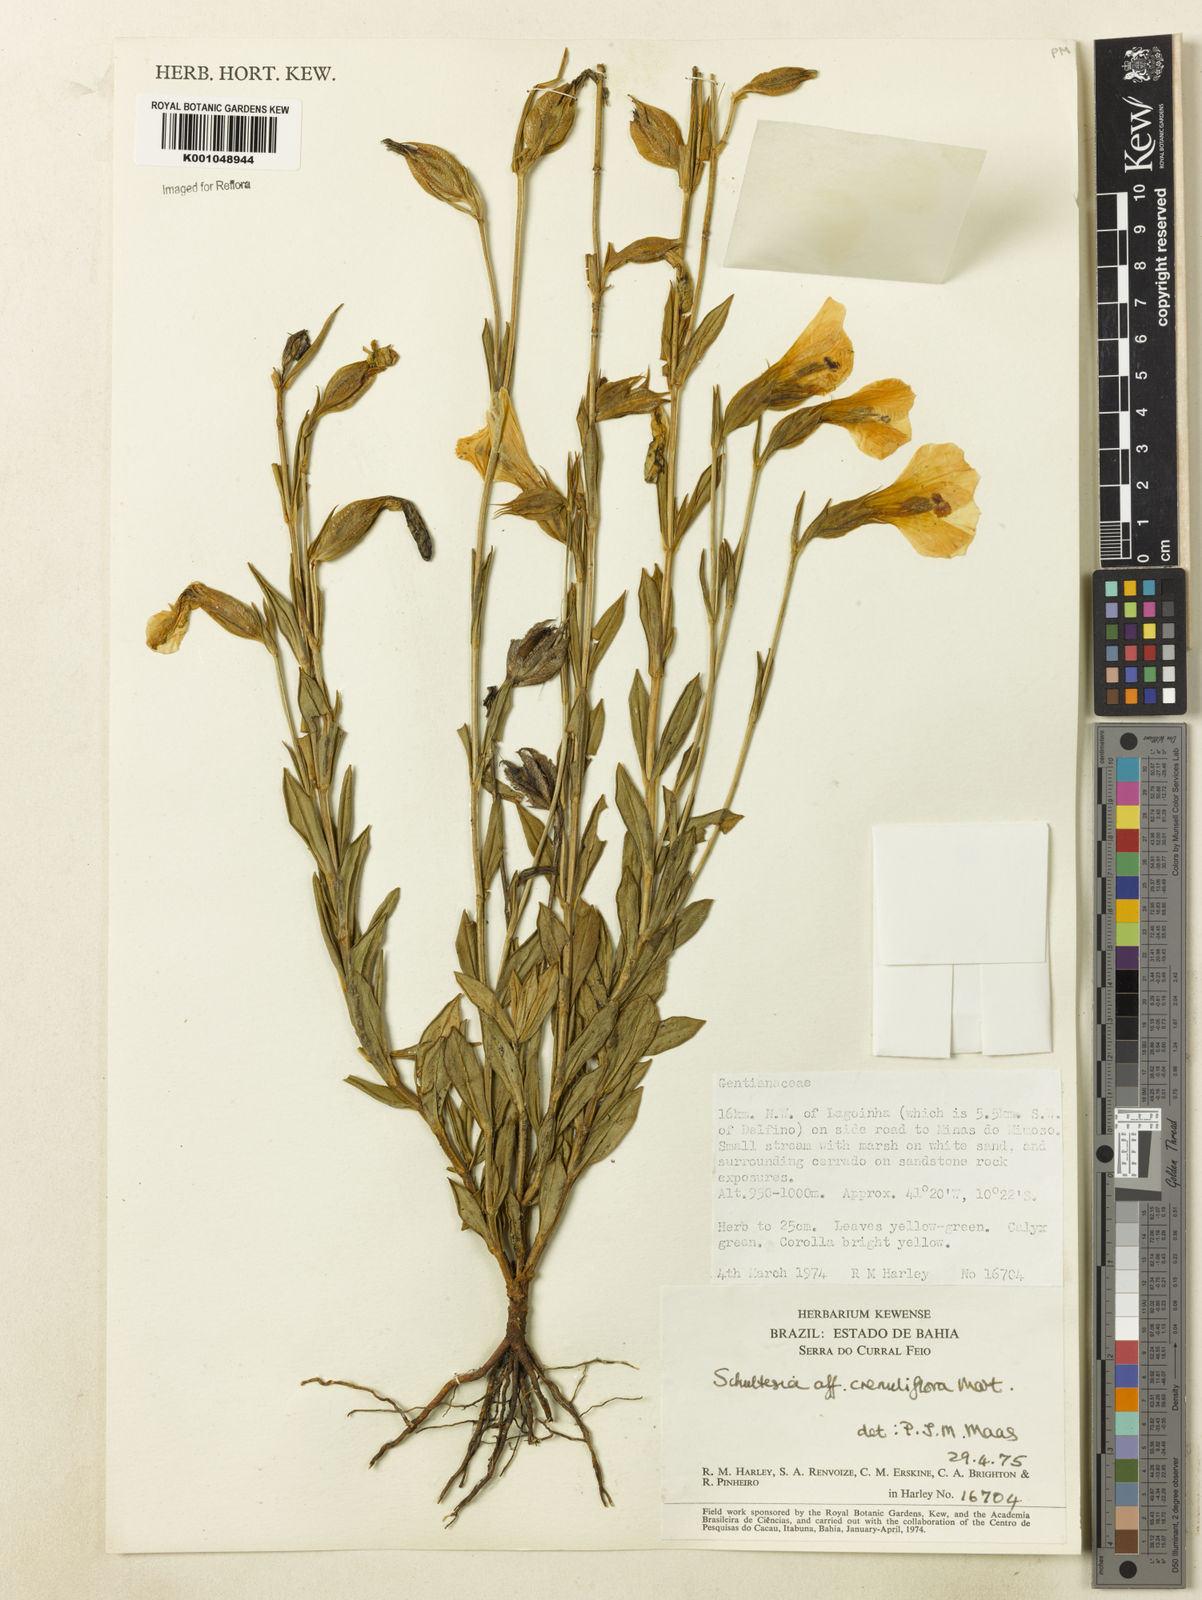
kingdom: Plantae
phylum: Tracheophyta
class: Magnoliopsida
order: Gentianales
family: Gentianaceae
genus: Schultesia
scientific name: Schultesia crenuliflora
